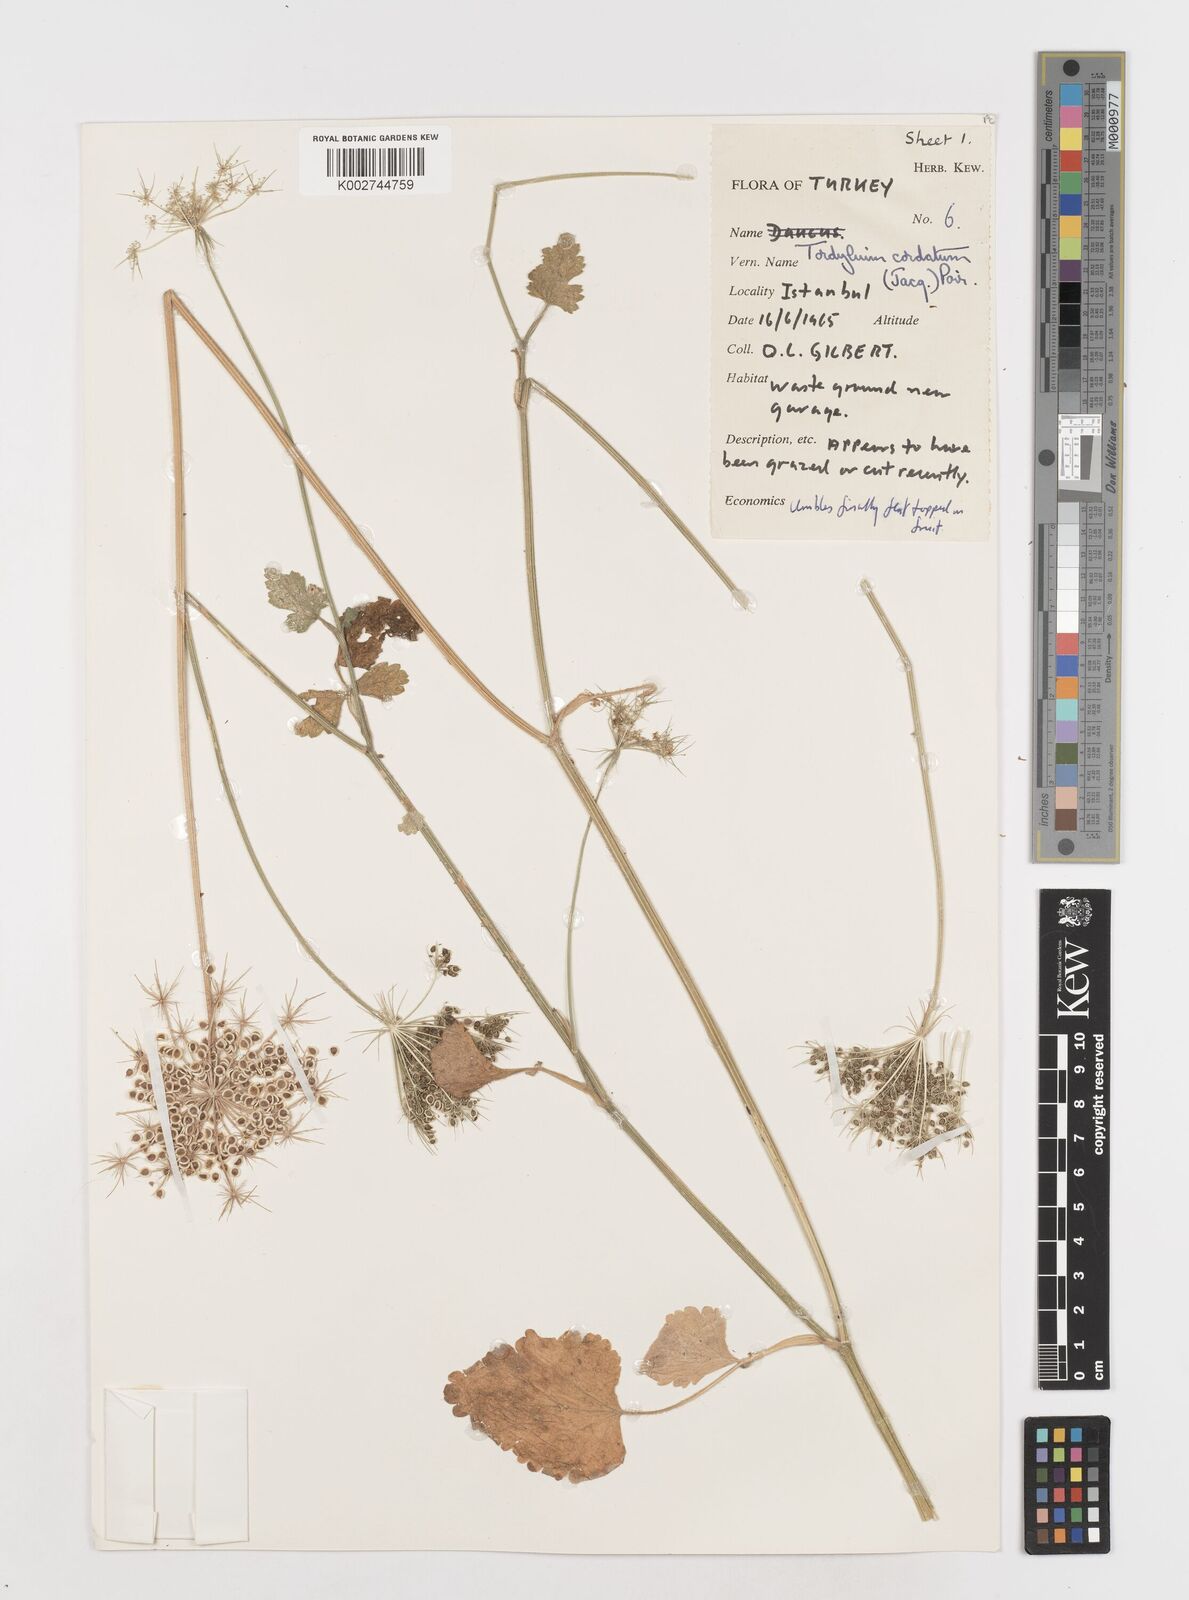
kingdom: Plantae
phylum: Tracheophyta
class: Magnoliopsida
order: Apiales
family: Apiaceae
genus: Ainsworthia
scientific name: Ainsworthia cordata
